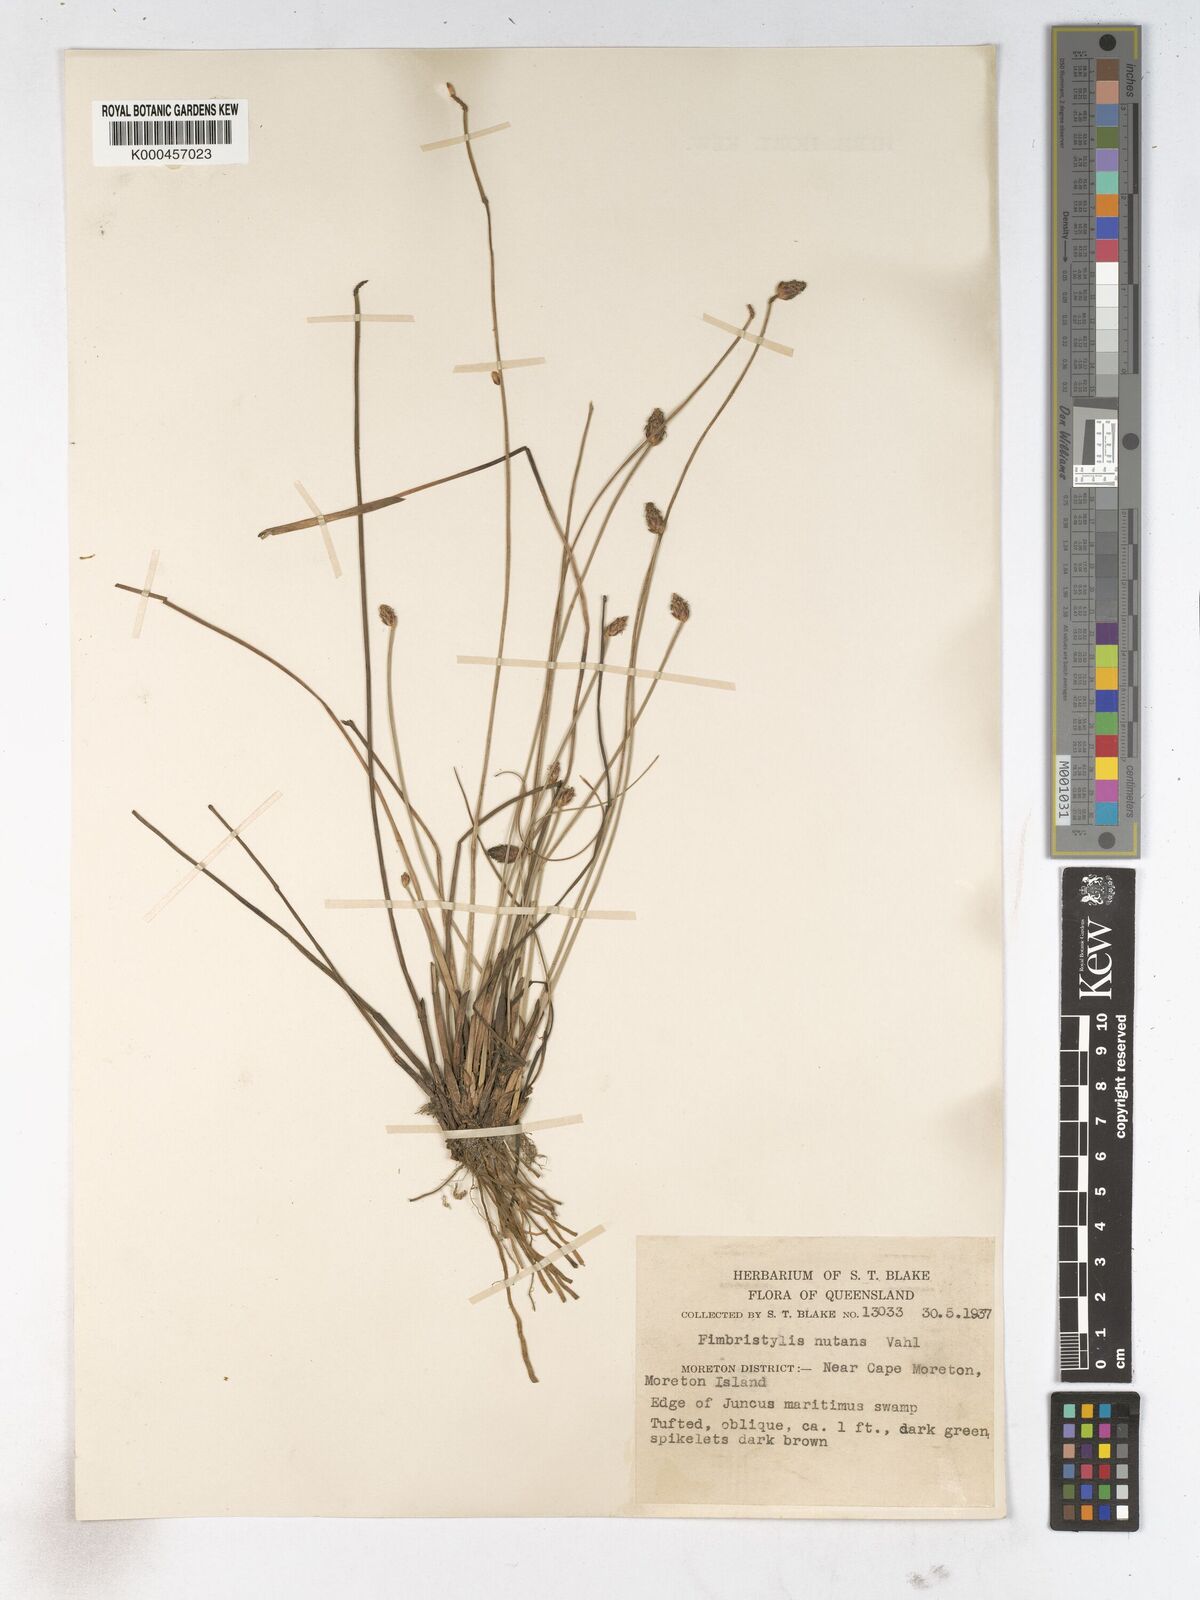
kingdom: Plantae
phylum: Tracheophyta
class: Liliopsida
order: Poales
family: Cyperaceae
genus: Fimbristylis
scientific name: Fimbristylis nutans
